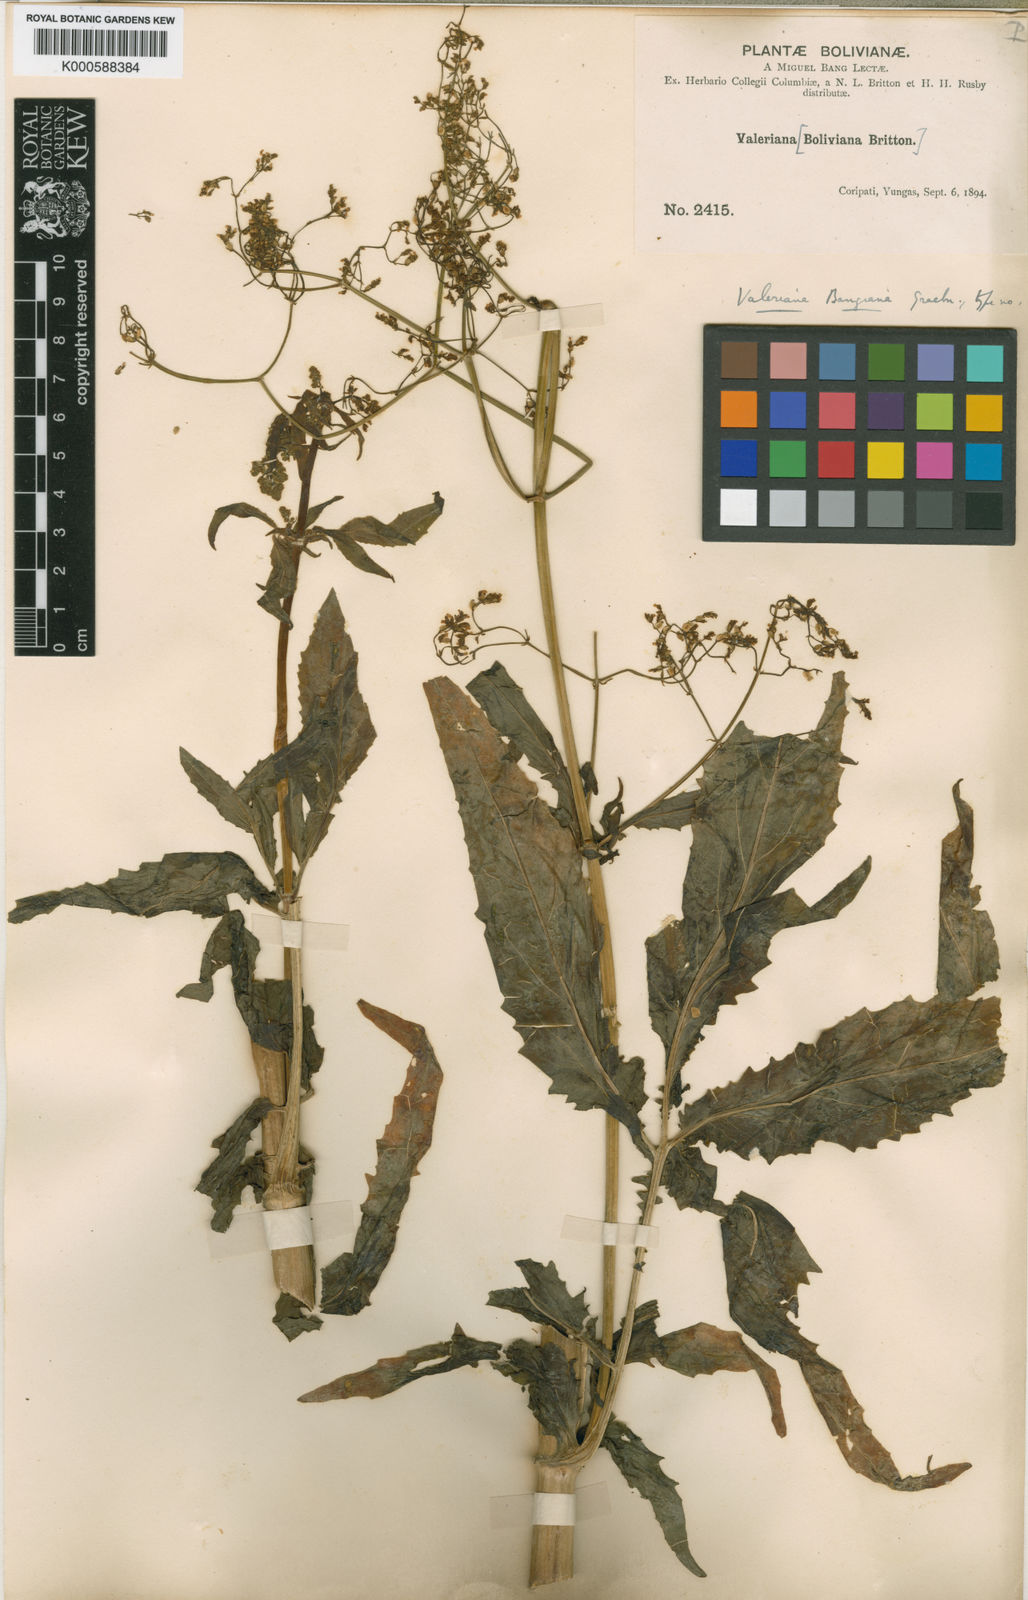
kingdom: Plantae
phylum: Tracheophyta
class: Magnoliopsida
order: Dipsacales
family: Caprifoliaceae
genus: Valeriana
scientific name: Valeriana boliviana
